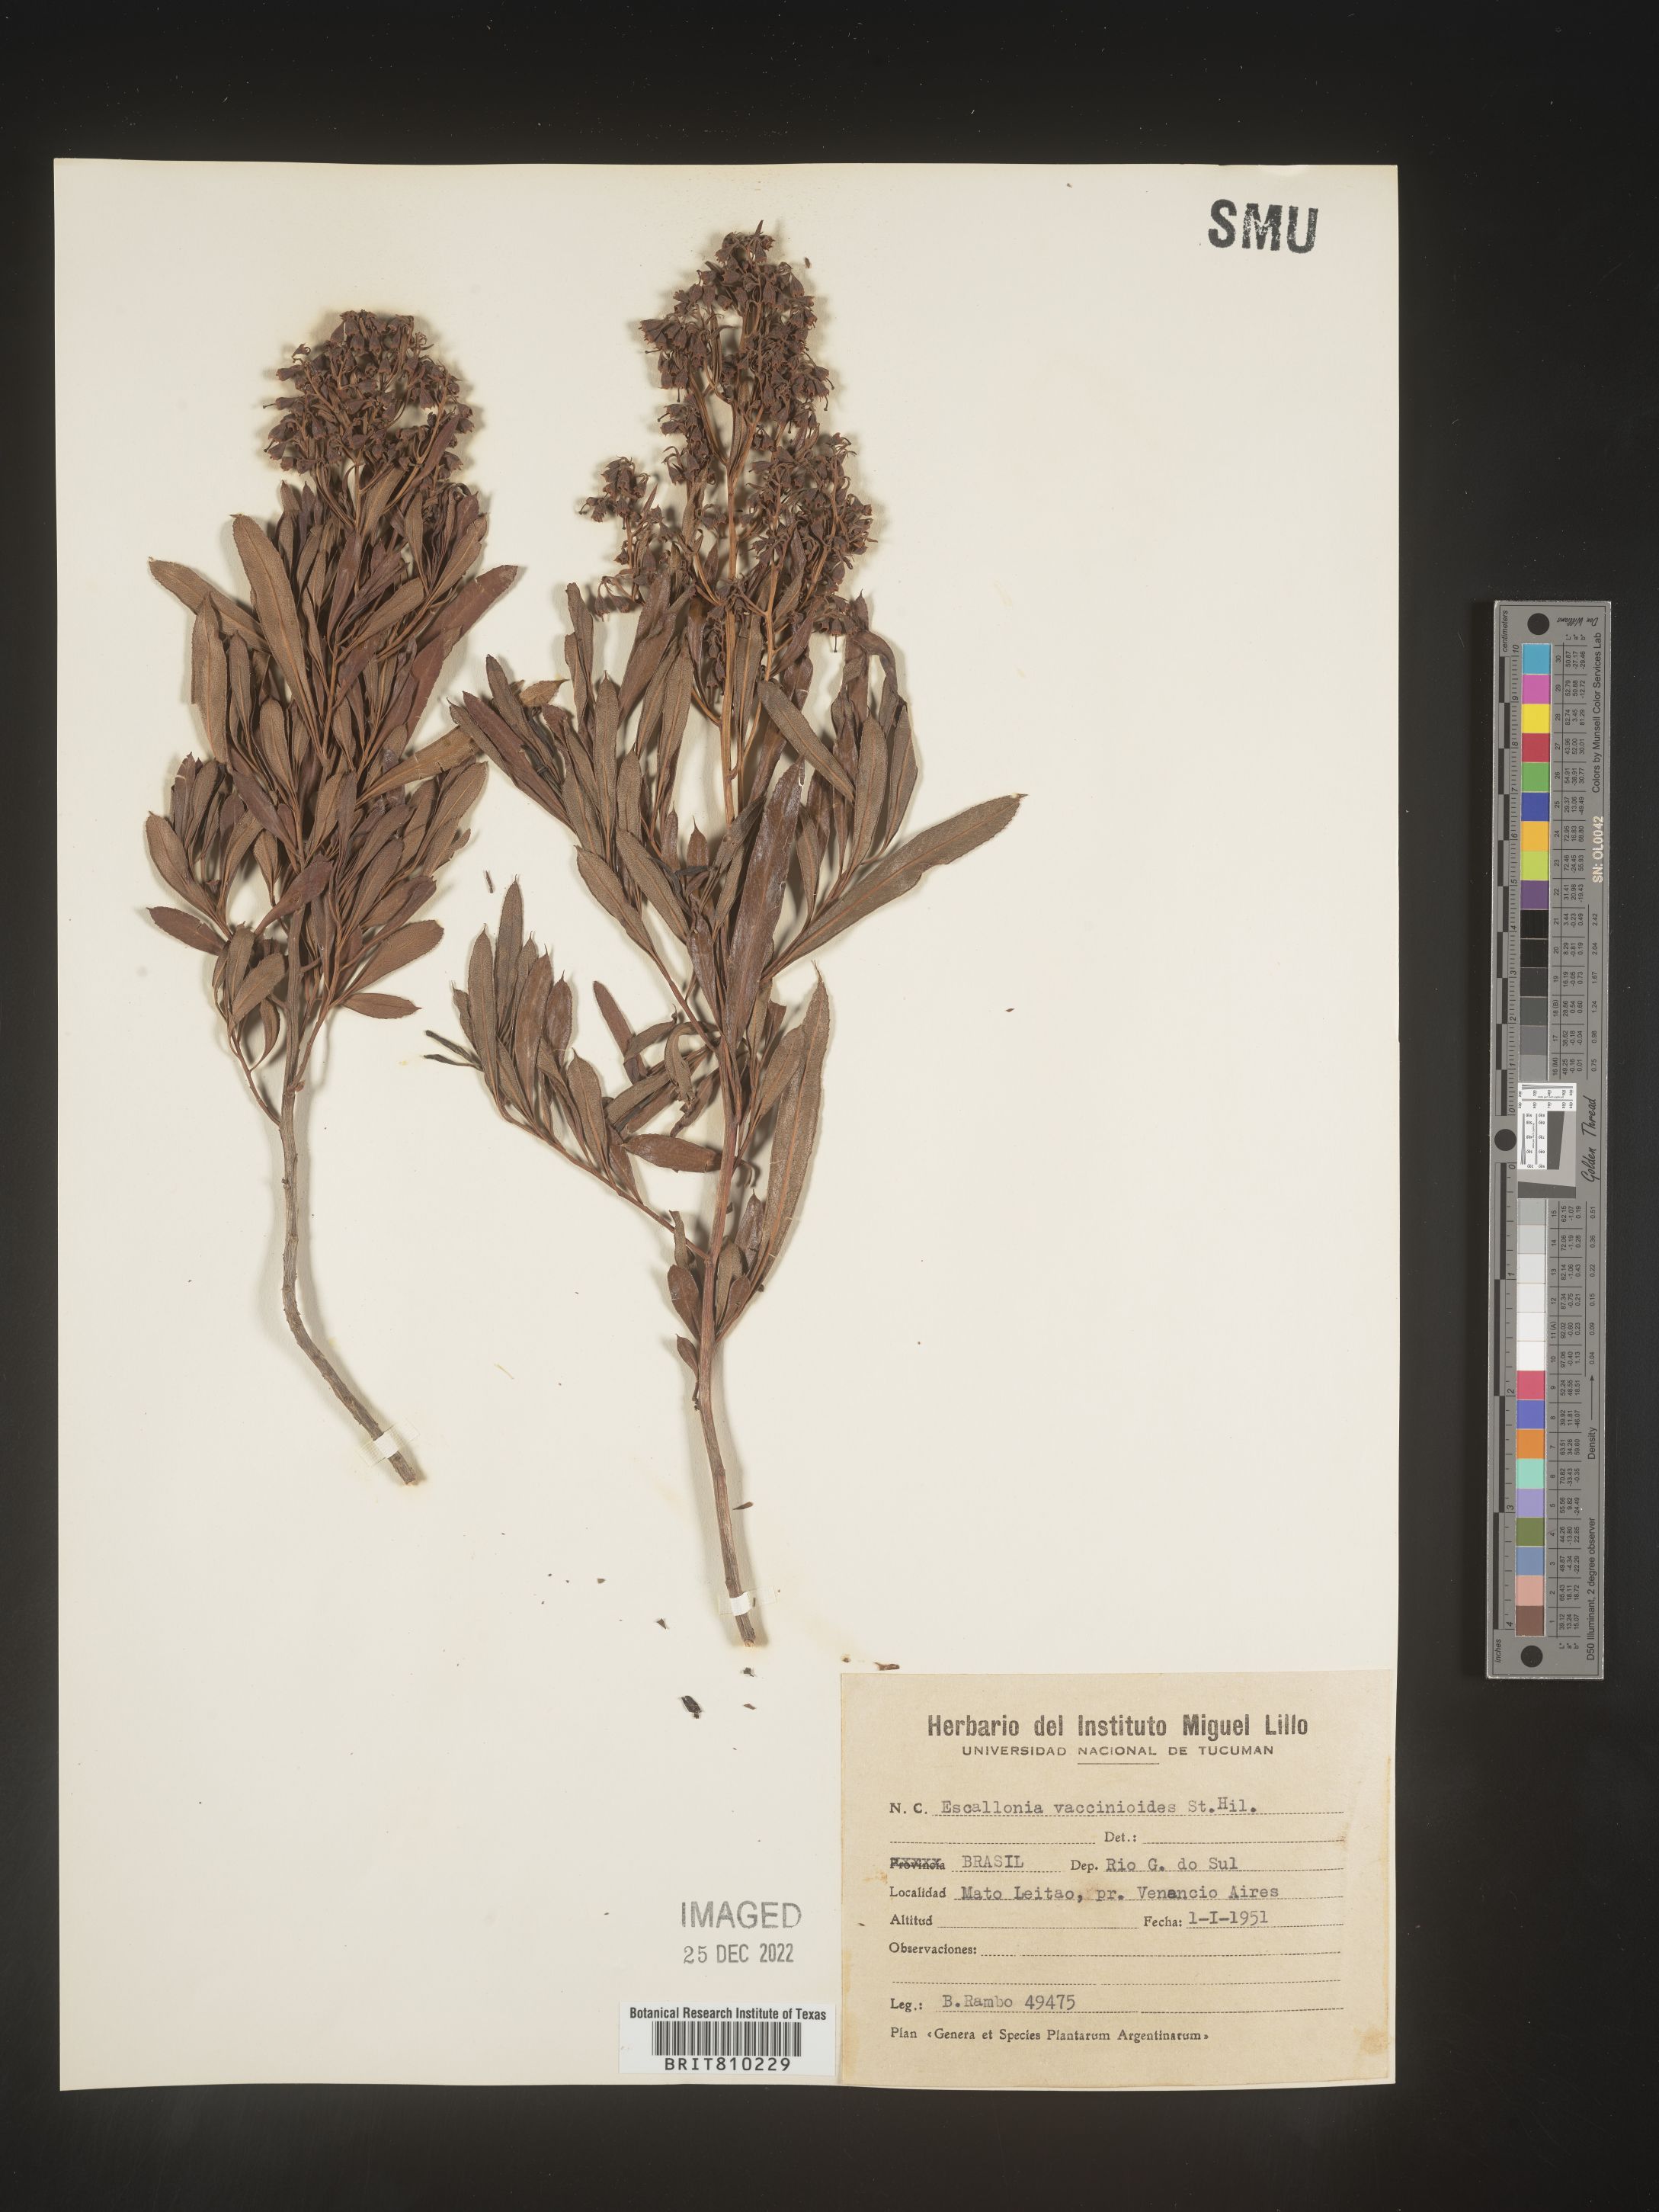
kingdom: Plantae
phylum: Tracheophyta
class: Magnoliopsida
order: Escalloniales
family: Escalloniaceae
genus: Escallonia
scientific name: Escallonia
